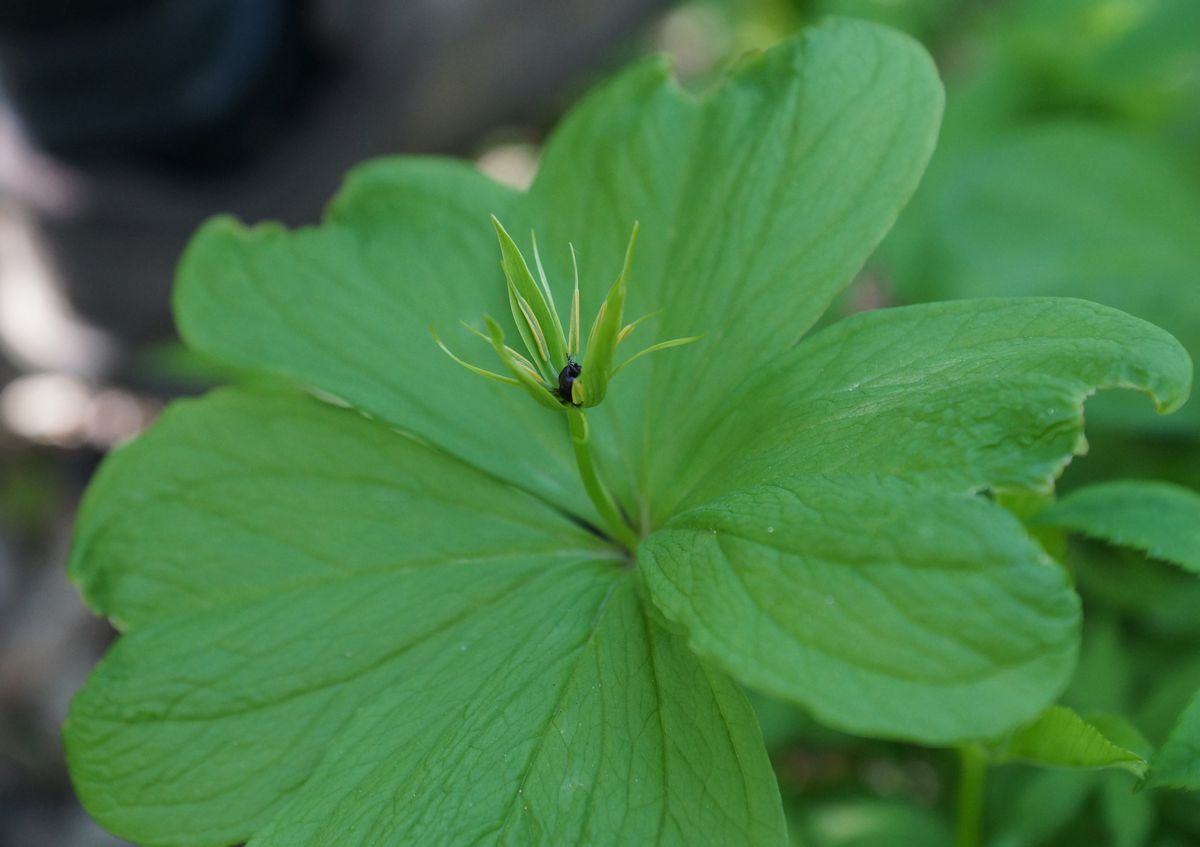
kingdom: Plantae
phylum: Tracheophyta
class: Liliopsida
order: Liliales
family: Melanthiaceae
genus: Paris
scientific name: Paris quadrifolia
